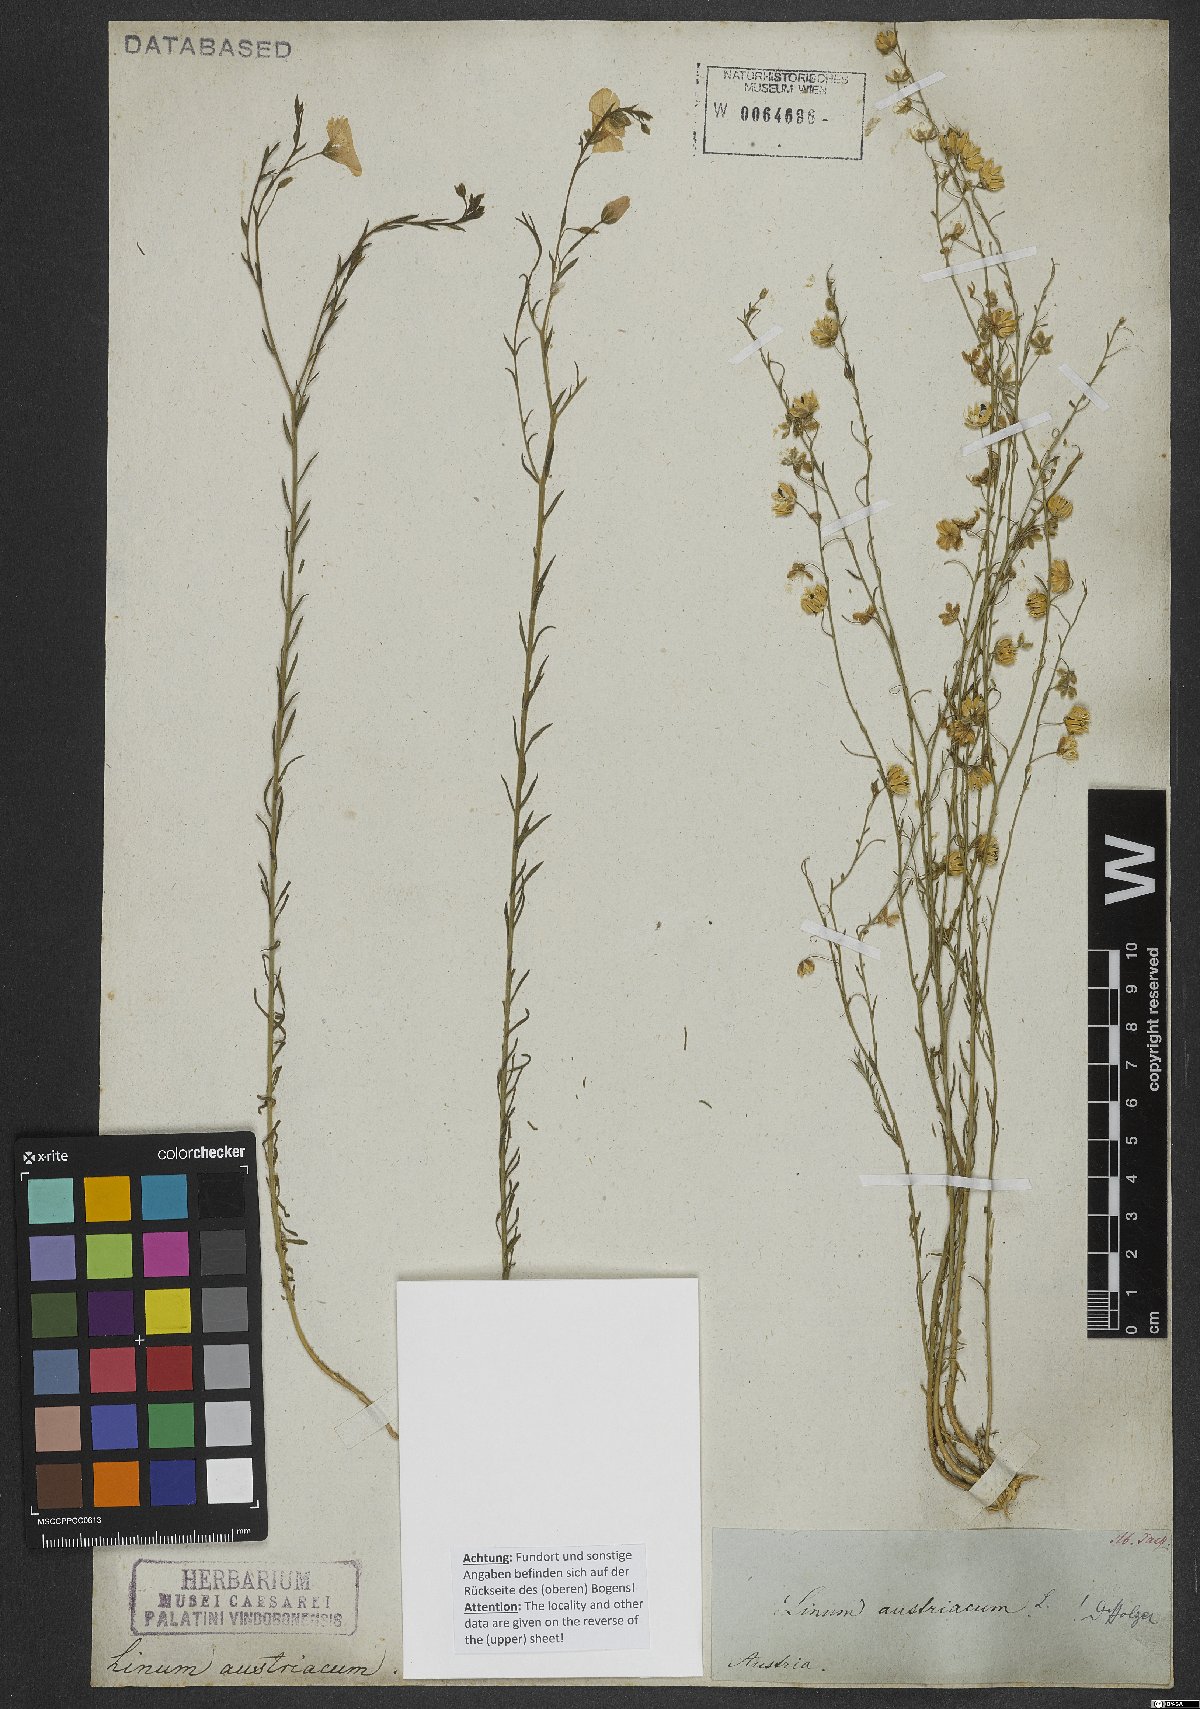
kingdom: Plantae
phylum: Tracheophyta
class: Magnoliopsida
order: Malpighiales
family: Linaceae
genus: Linum
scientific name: Linum austriacum
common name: Austrian flax
